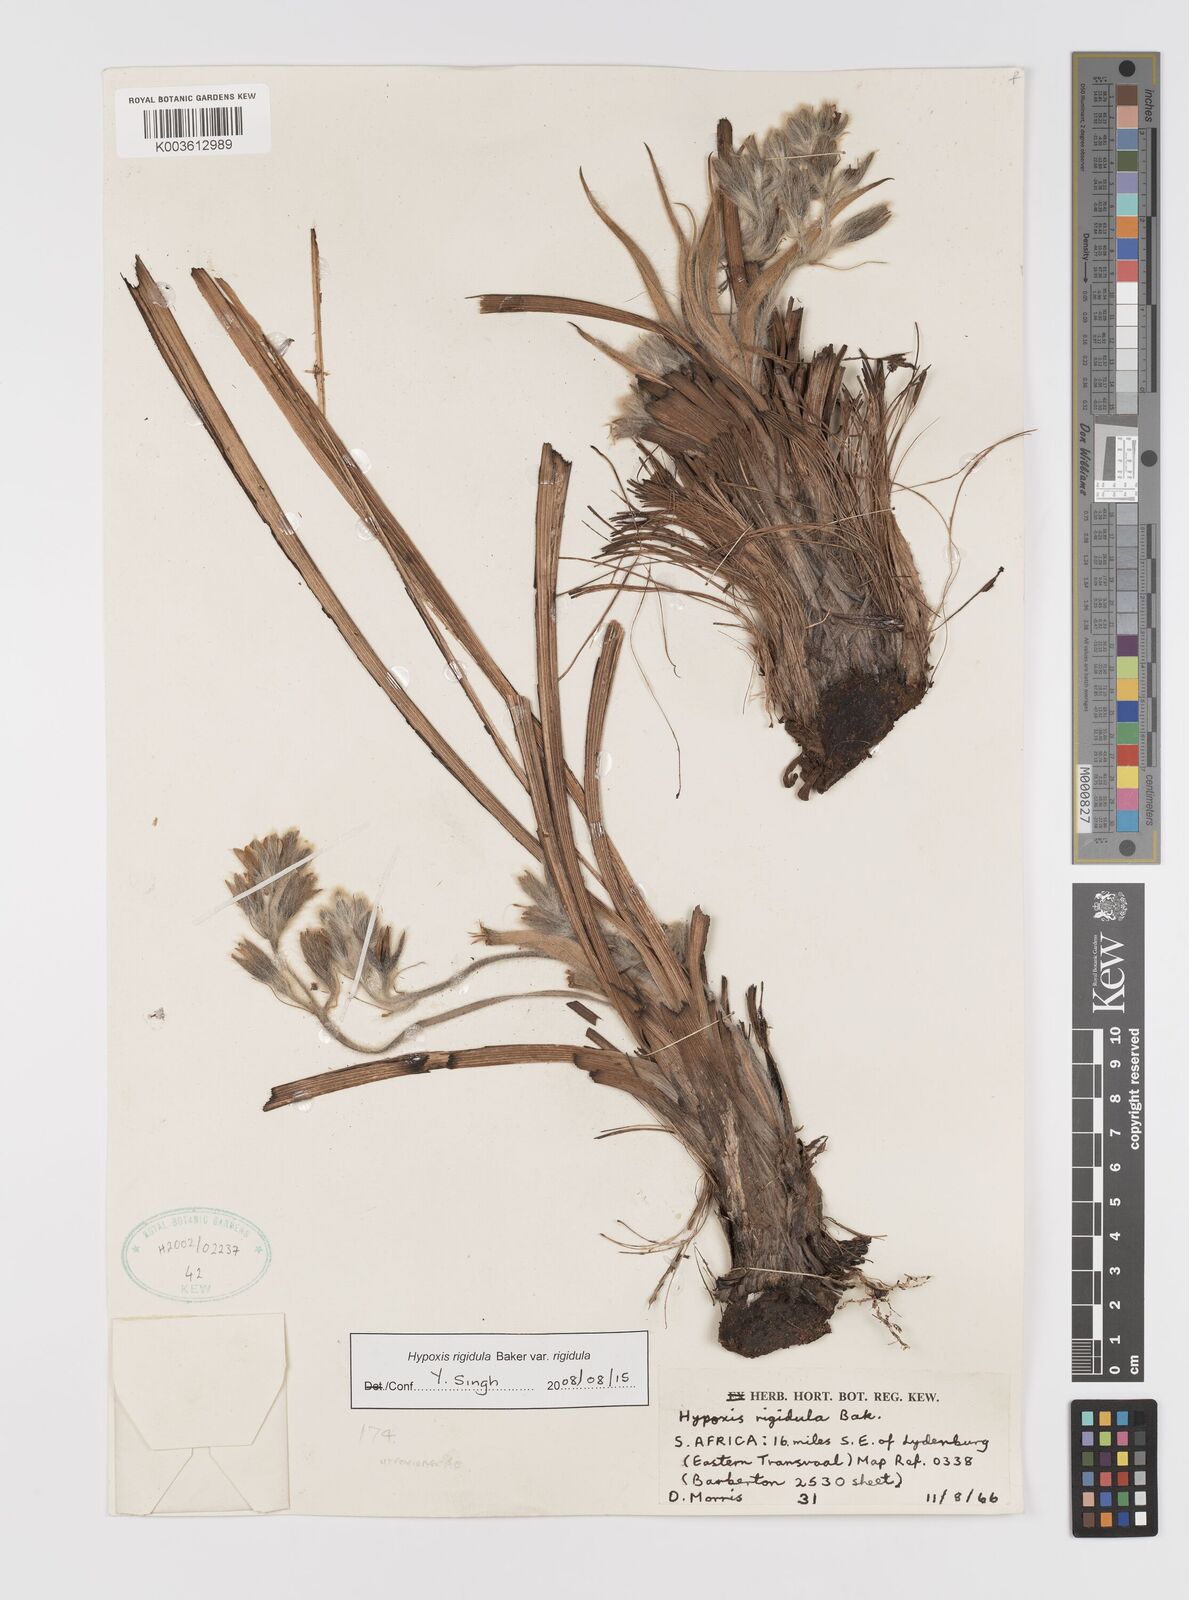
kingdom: Plantae
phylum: Tracheophyta
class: Liliopsida
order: Asparagales
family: Hypoxidaceae
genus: Hypoxis
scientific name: Hypoxis rigidula
